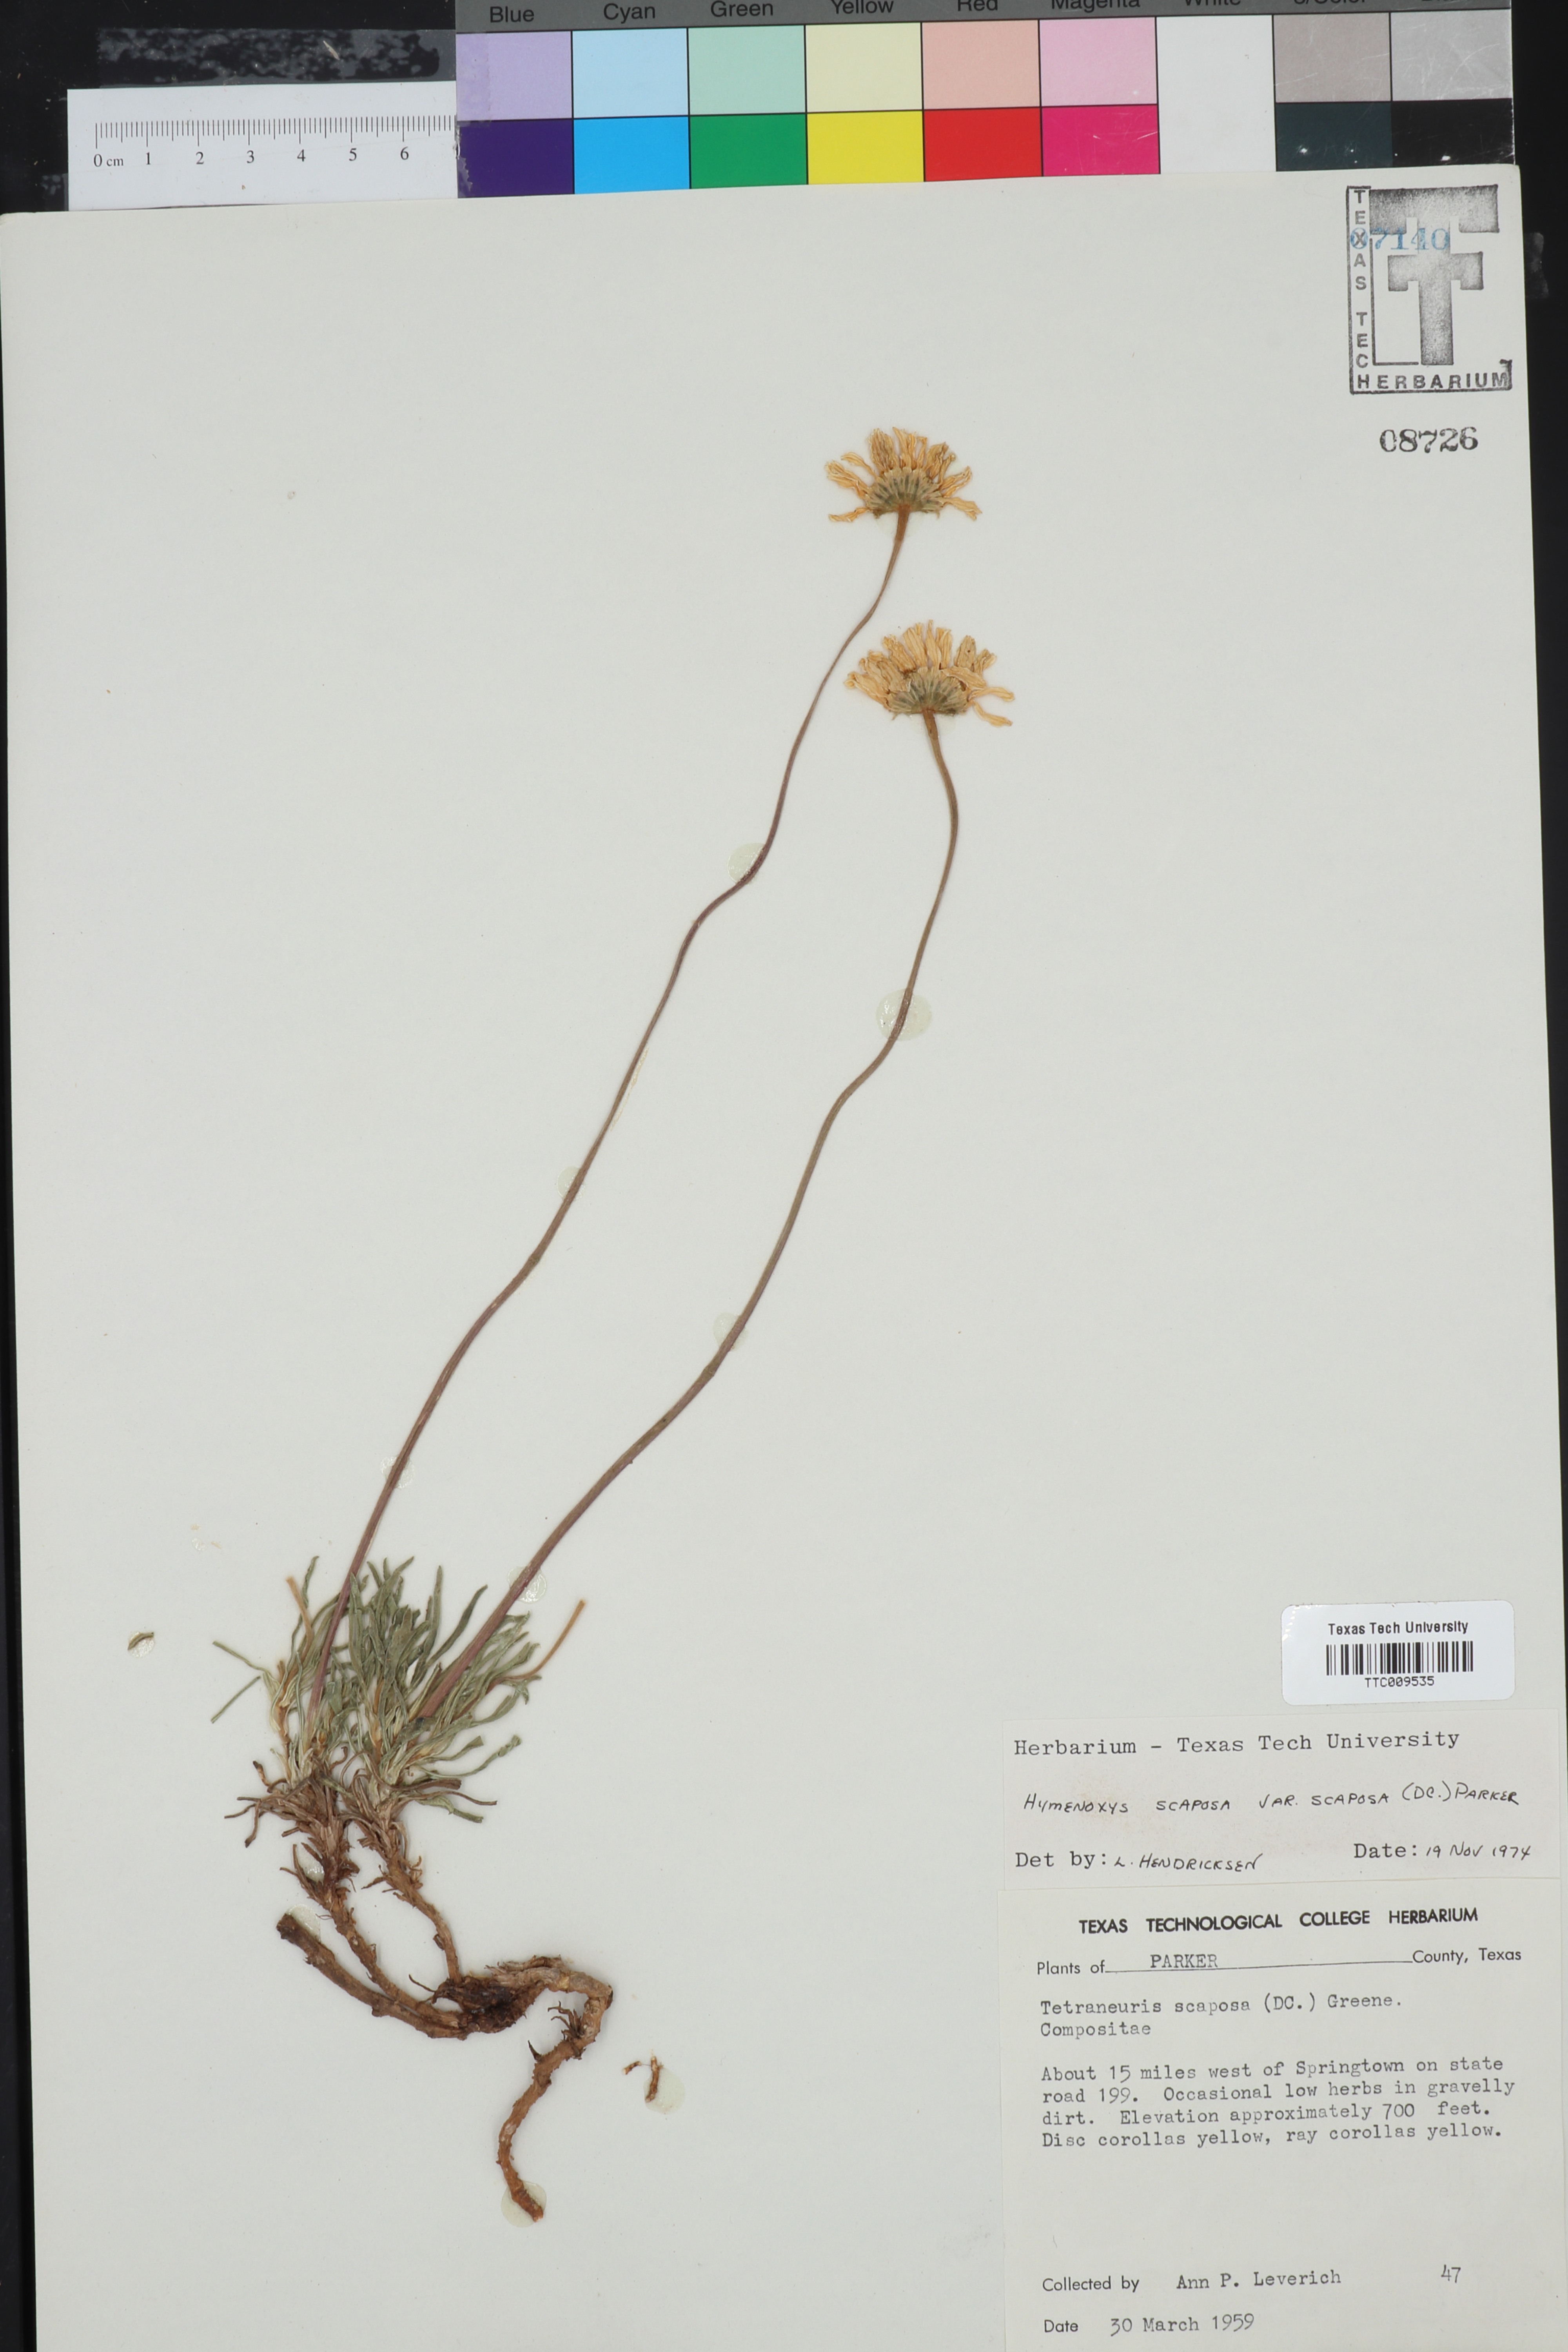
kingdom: Plantae
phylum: Tracheophyta
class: Magnoliopsida
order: Asterales
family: Asteraceae
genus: Tetraneuris
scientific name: Tetraneuris scaposa
